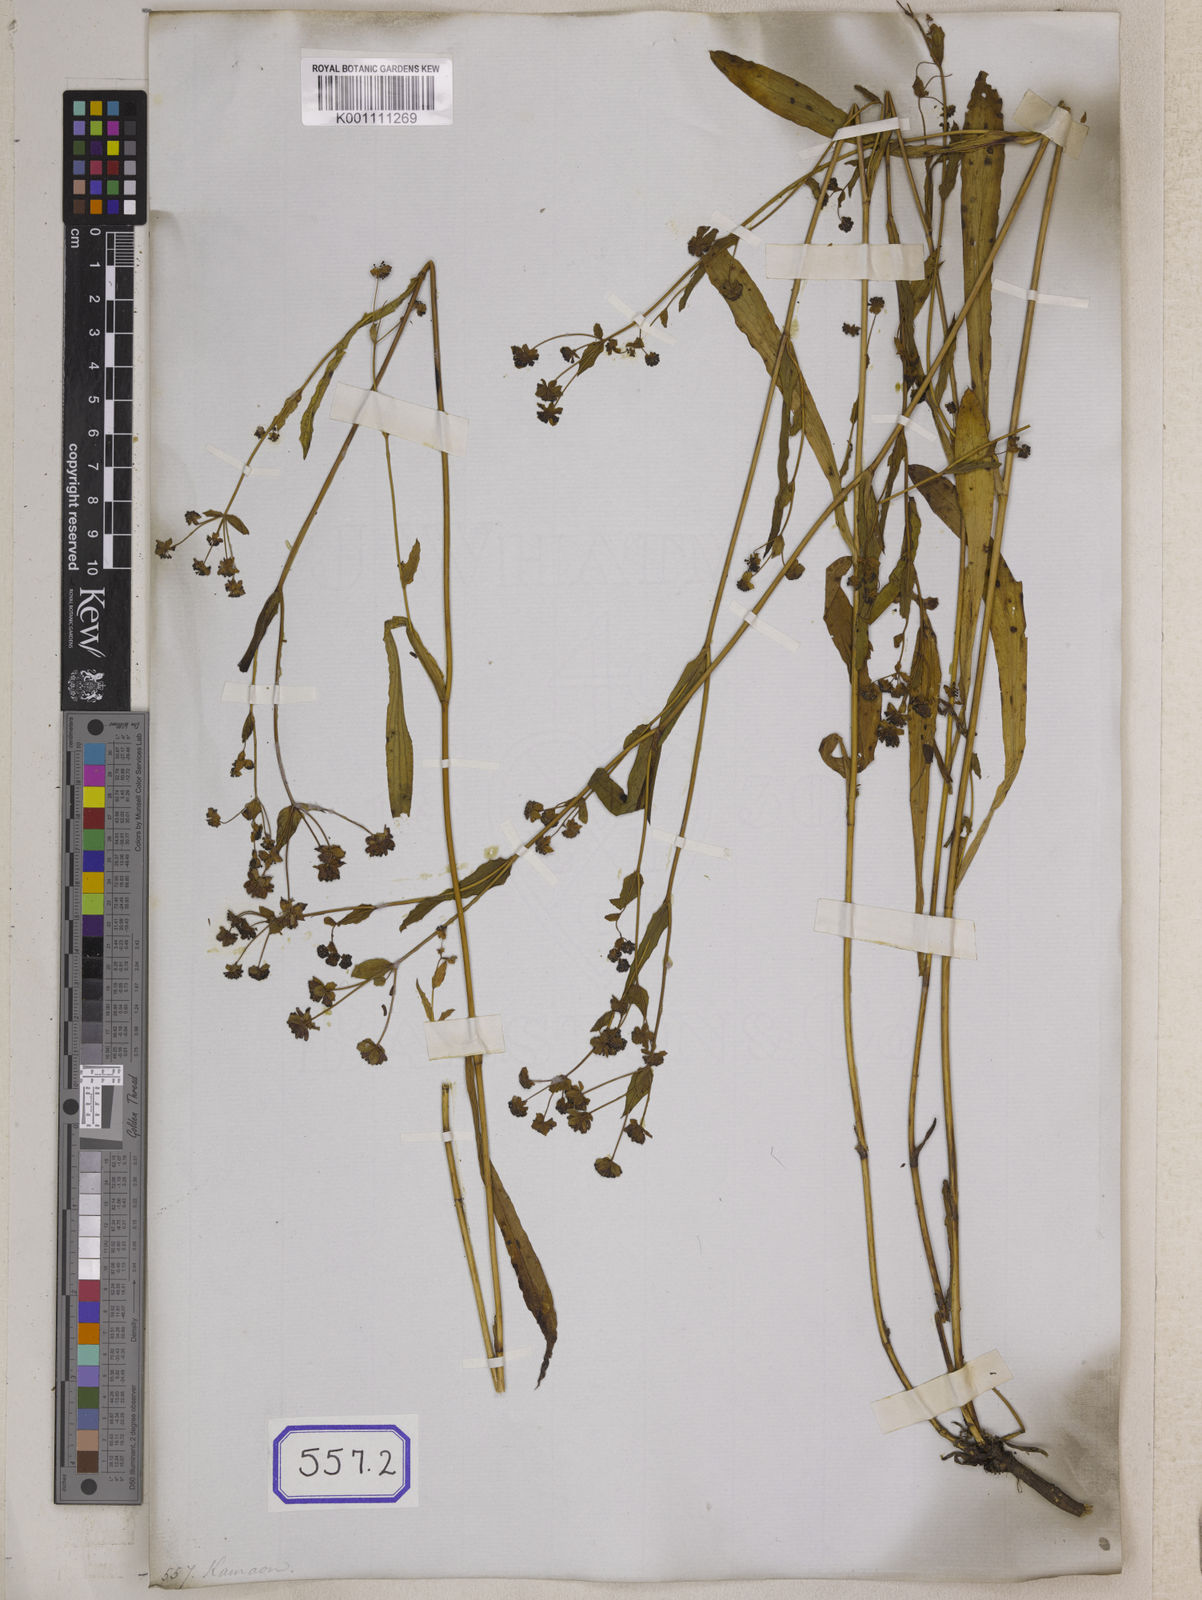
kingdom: Plantae
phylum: Tracheophyta
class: Magnoliopsida
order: Apiales
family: Apiaceae
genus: Bupleurum
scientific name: Bupleurum
